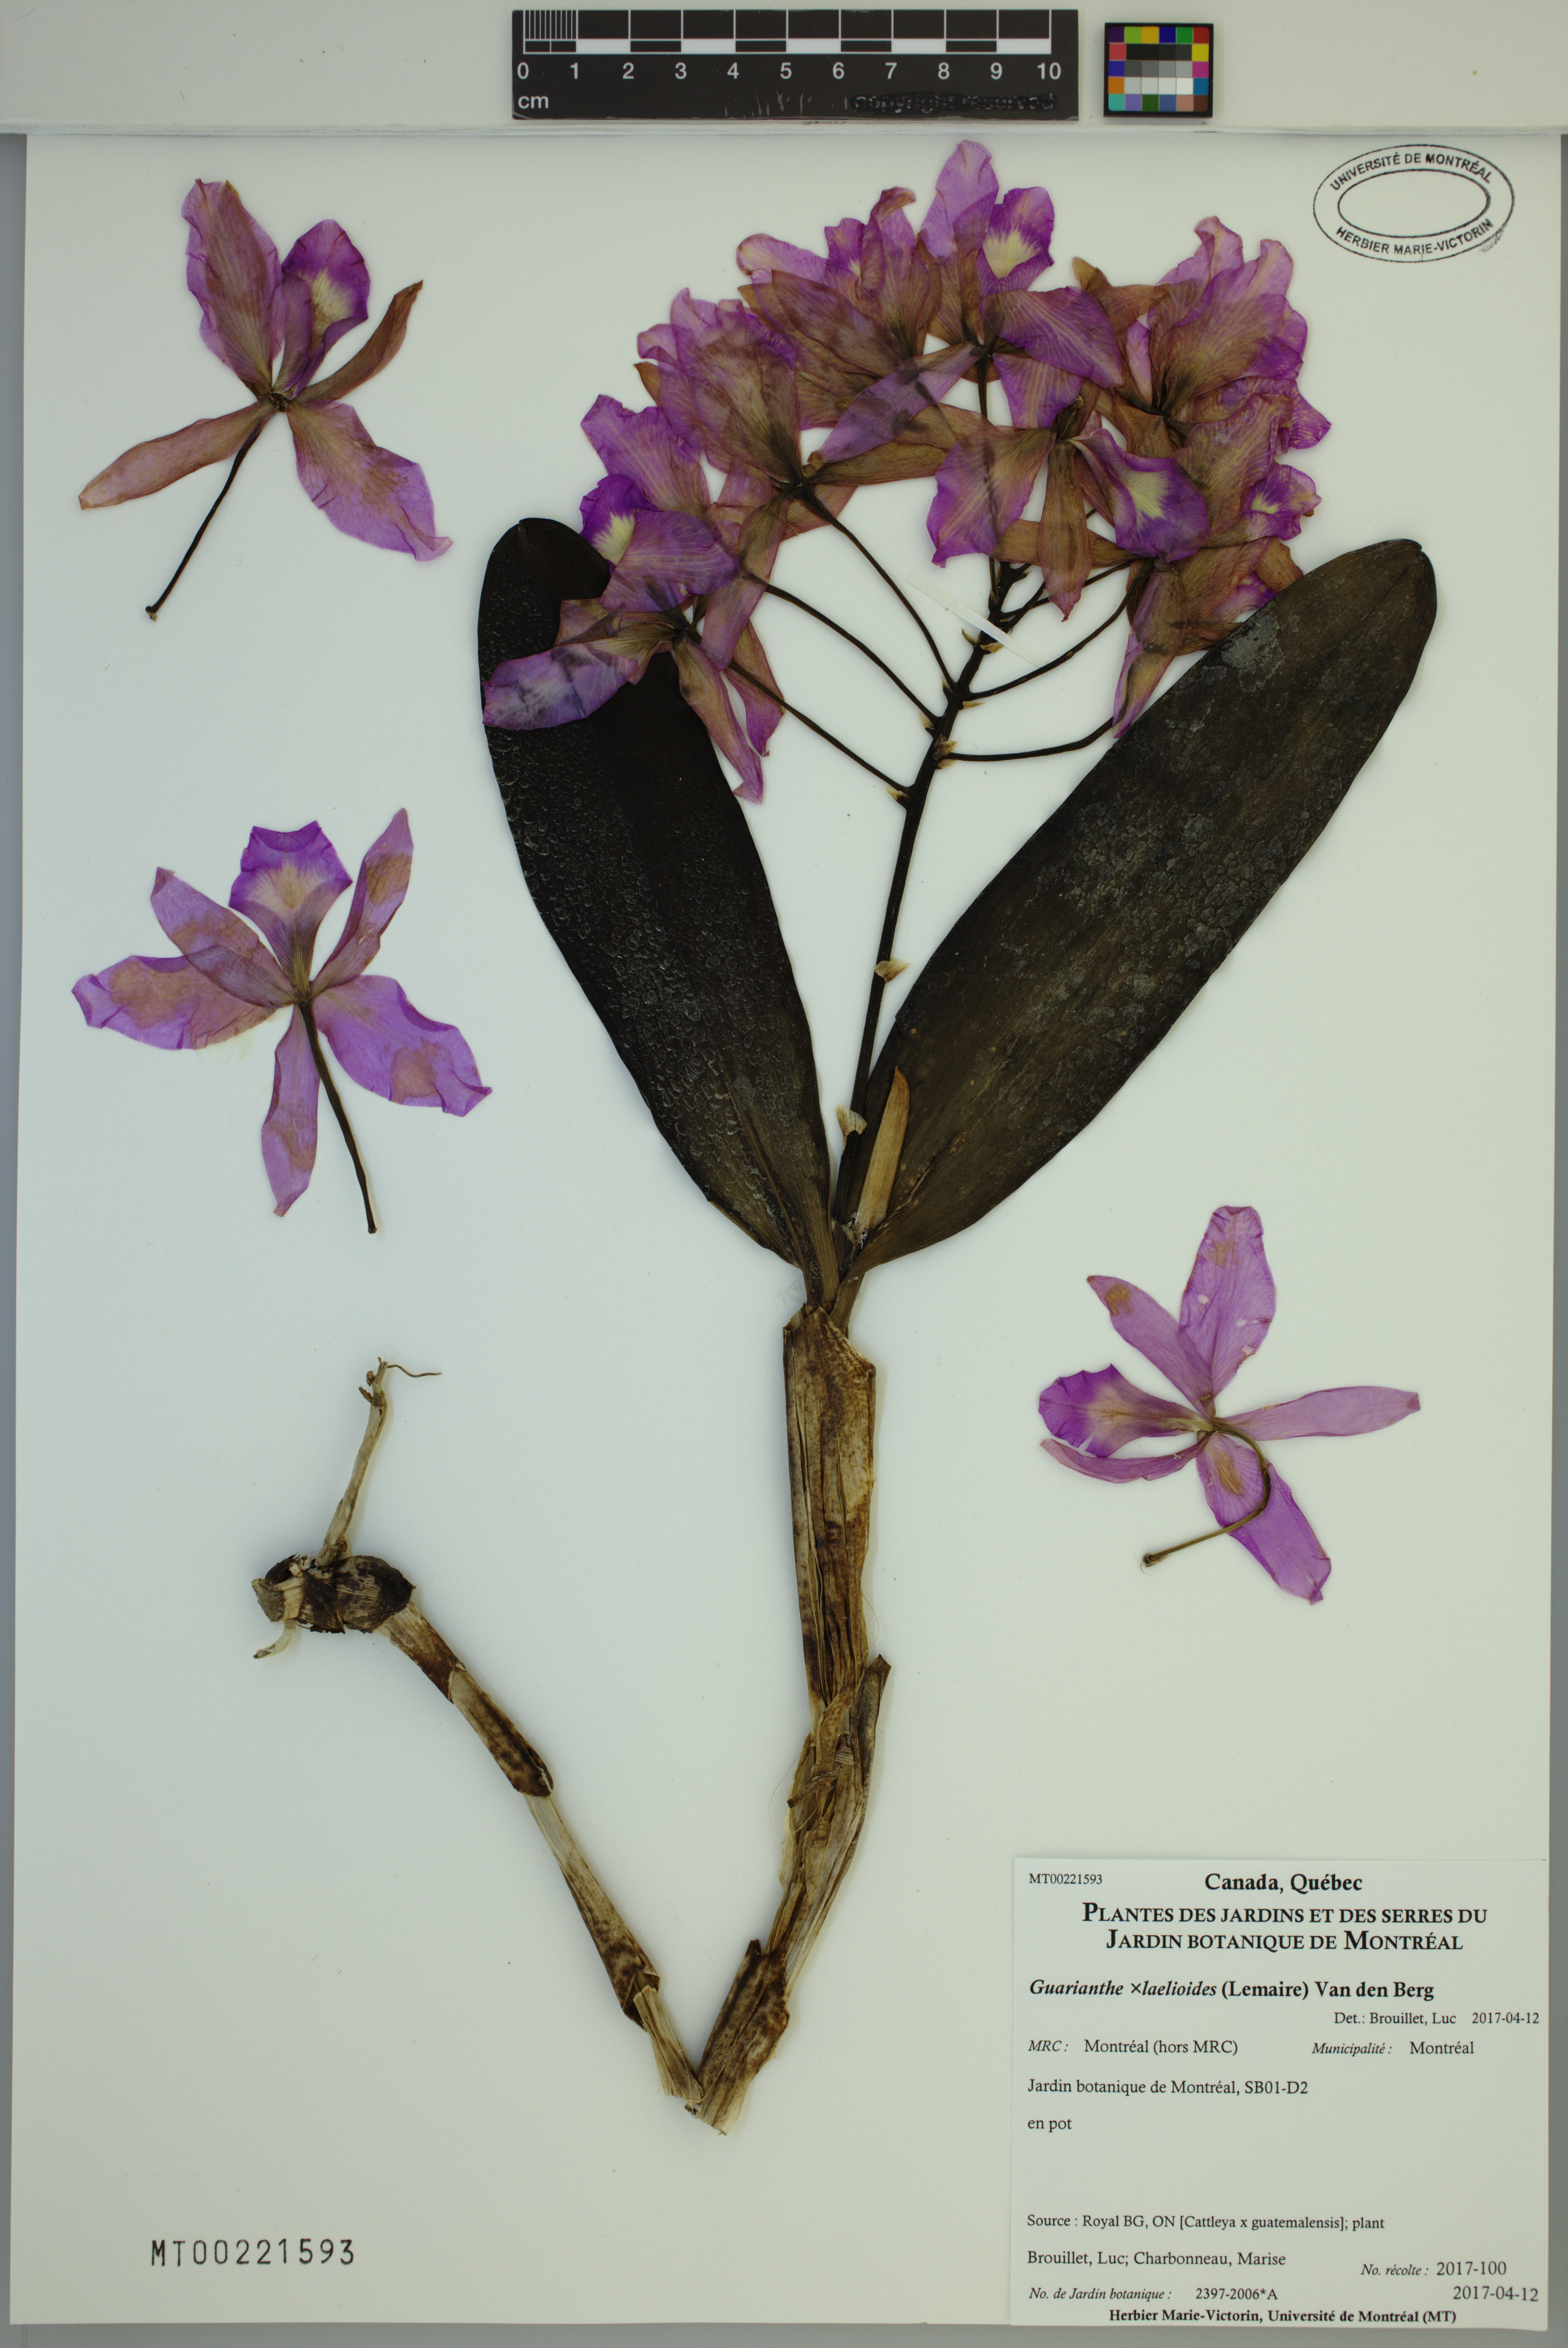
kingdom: Plantae
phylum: Tracheophyta
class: Liliopsida
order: Asparagales
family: Orchidaceae
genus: Guarianthe
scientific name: Guarianthe laelioides
